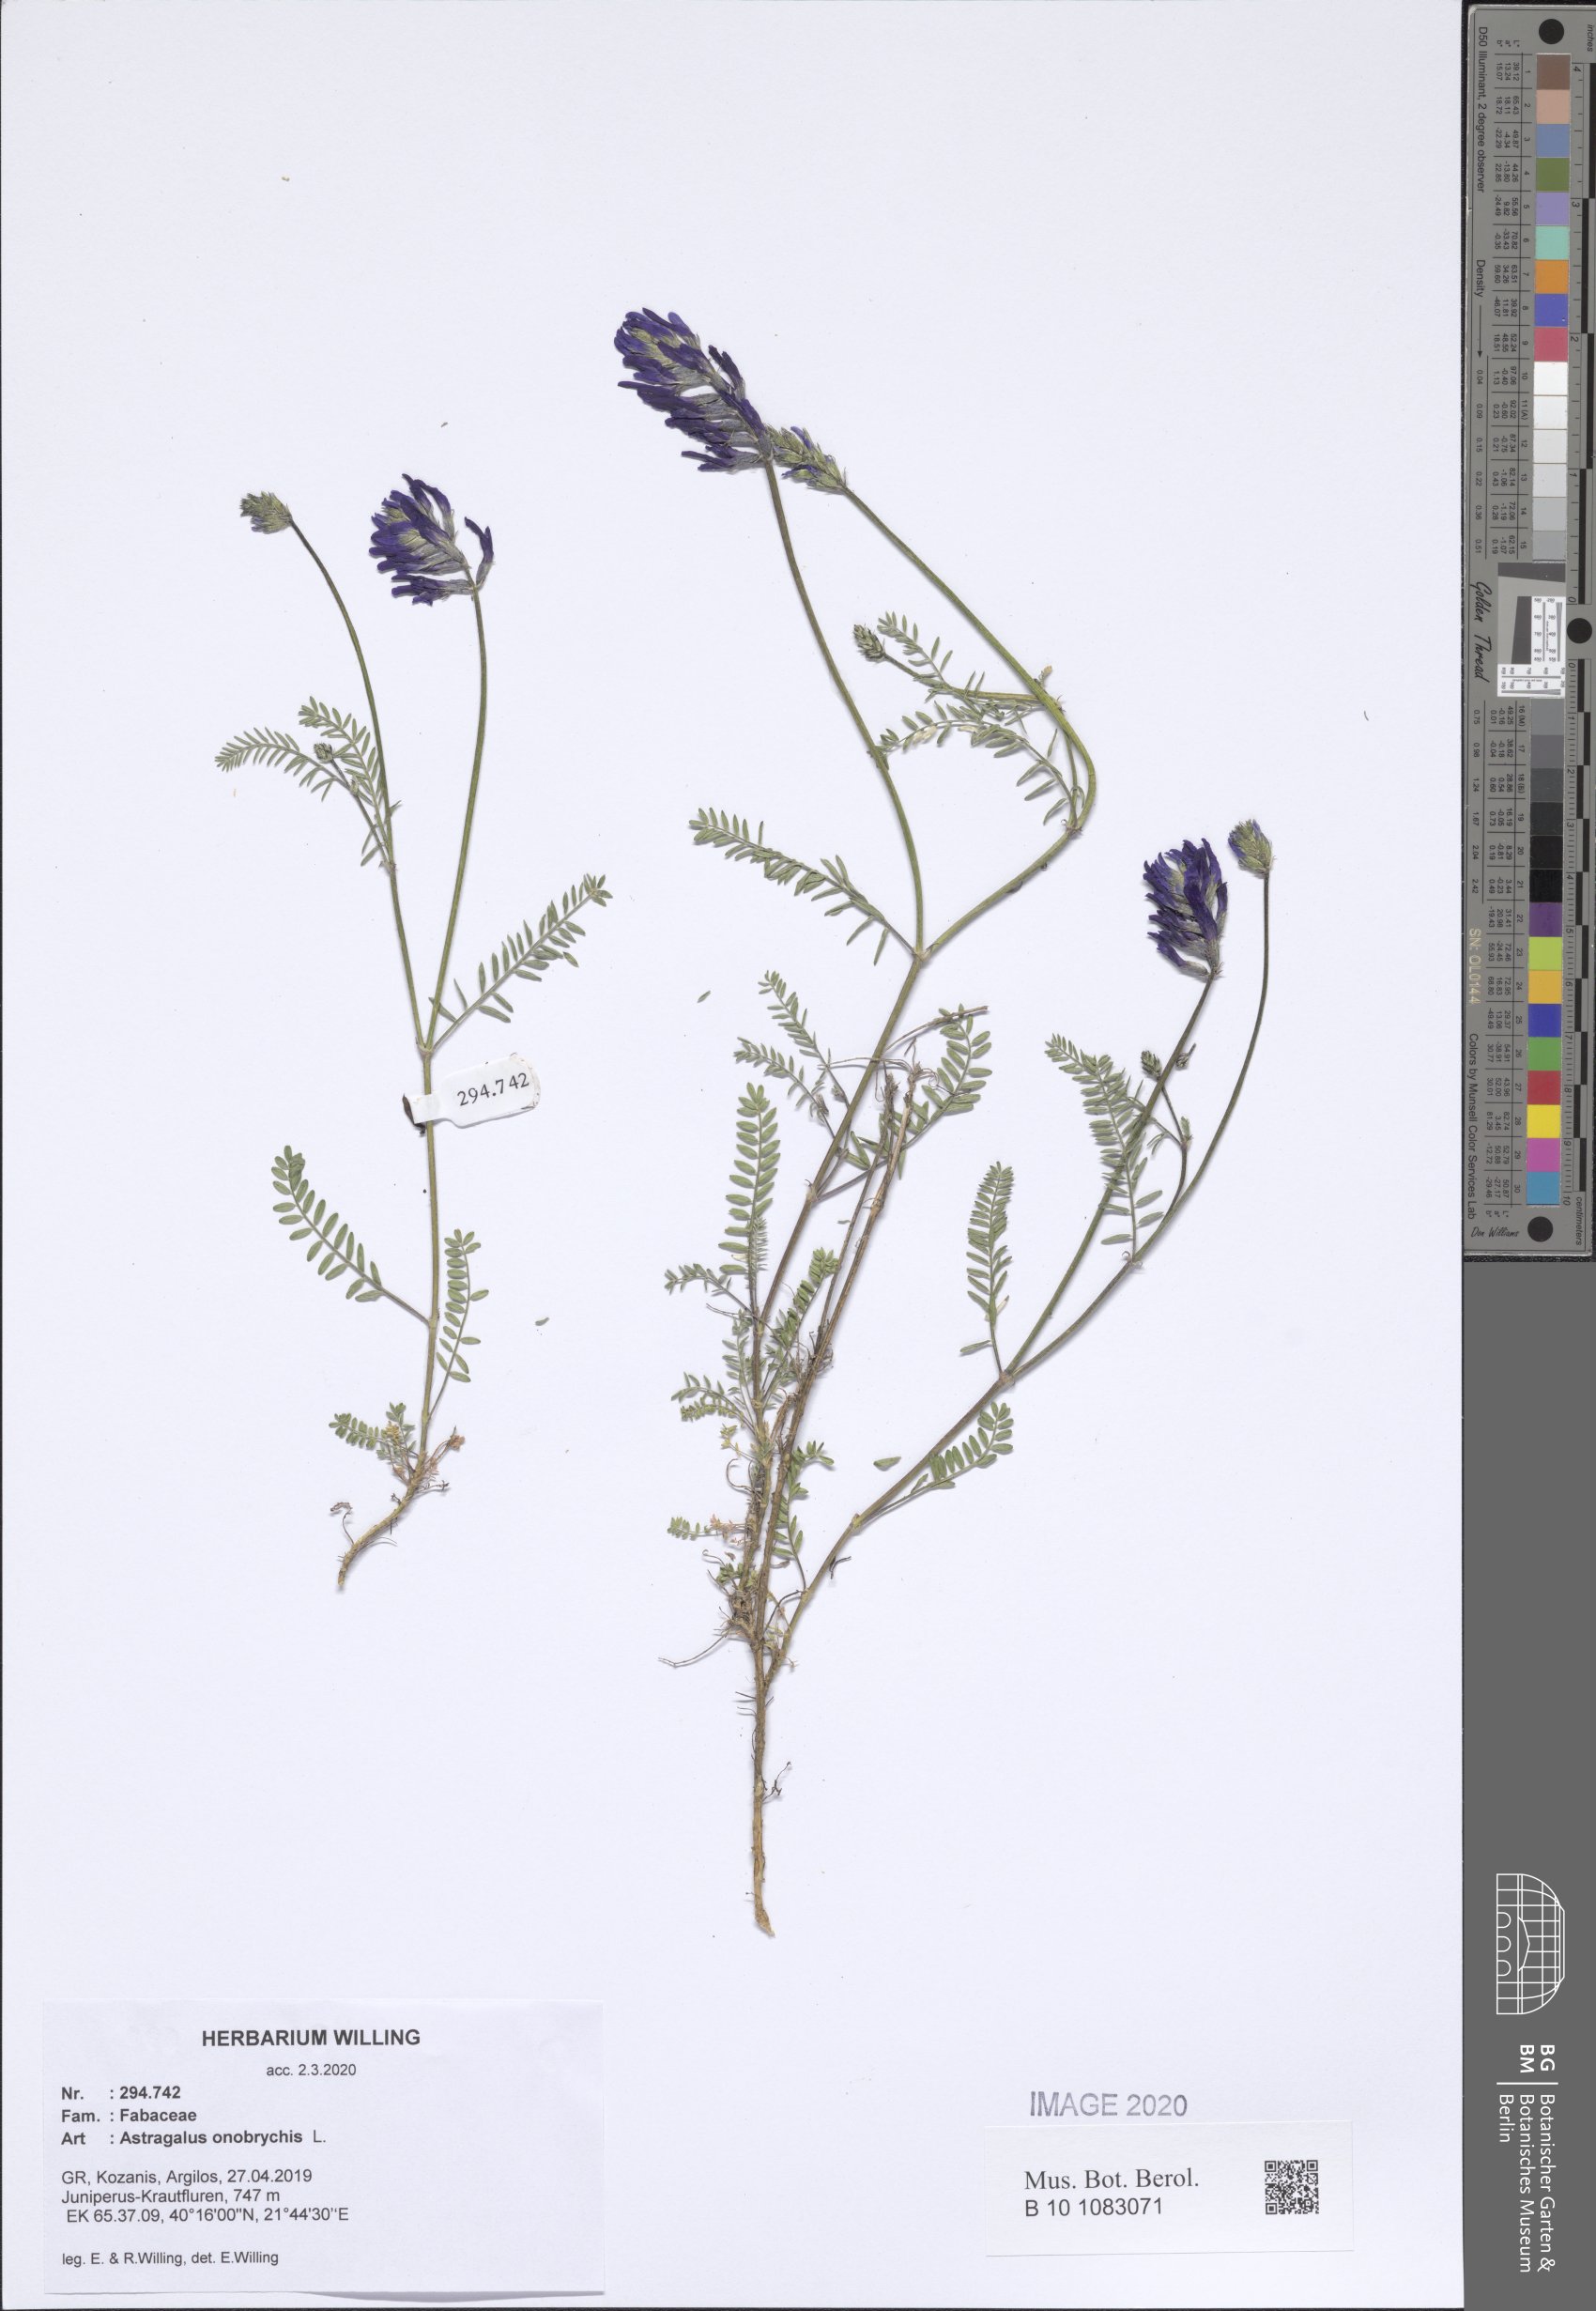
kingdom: Plantae
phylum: Tracheophyta
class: Magnoliopsida
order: Fabales
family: Fabaceae
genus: Astragalus
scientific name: Astragalus onobrychis
